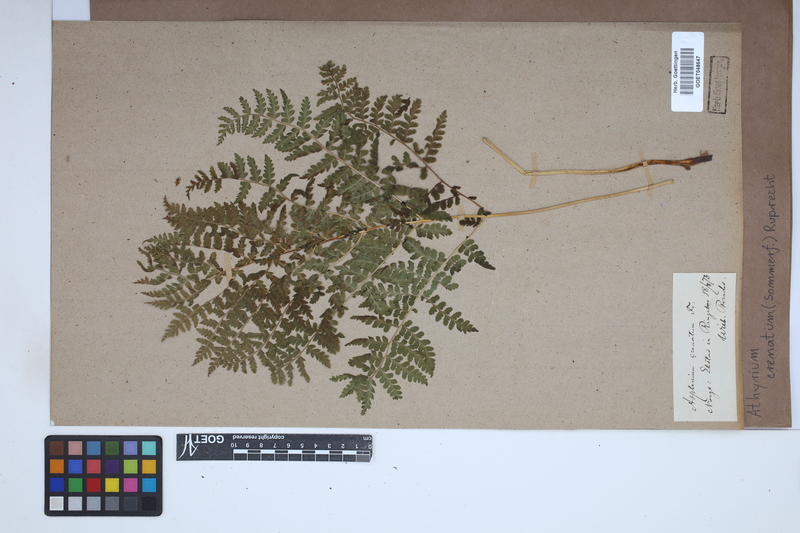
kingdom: Plantae
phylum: Tracheophyta
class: Polypodiopsida
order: Polypodiales
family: Athyriaceae
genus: Diplazium
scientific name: Diplazium sibiricum
